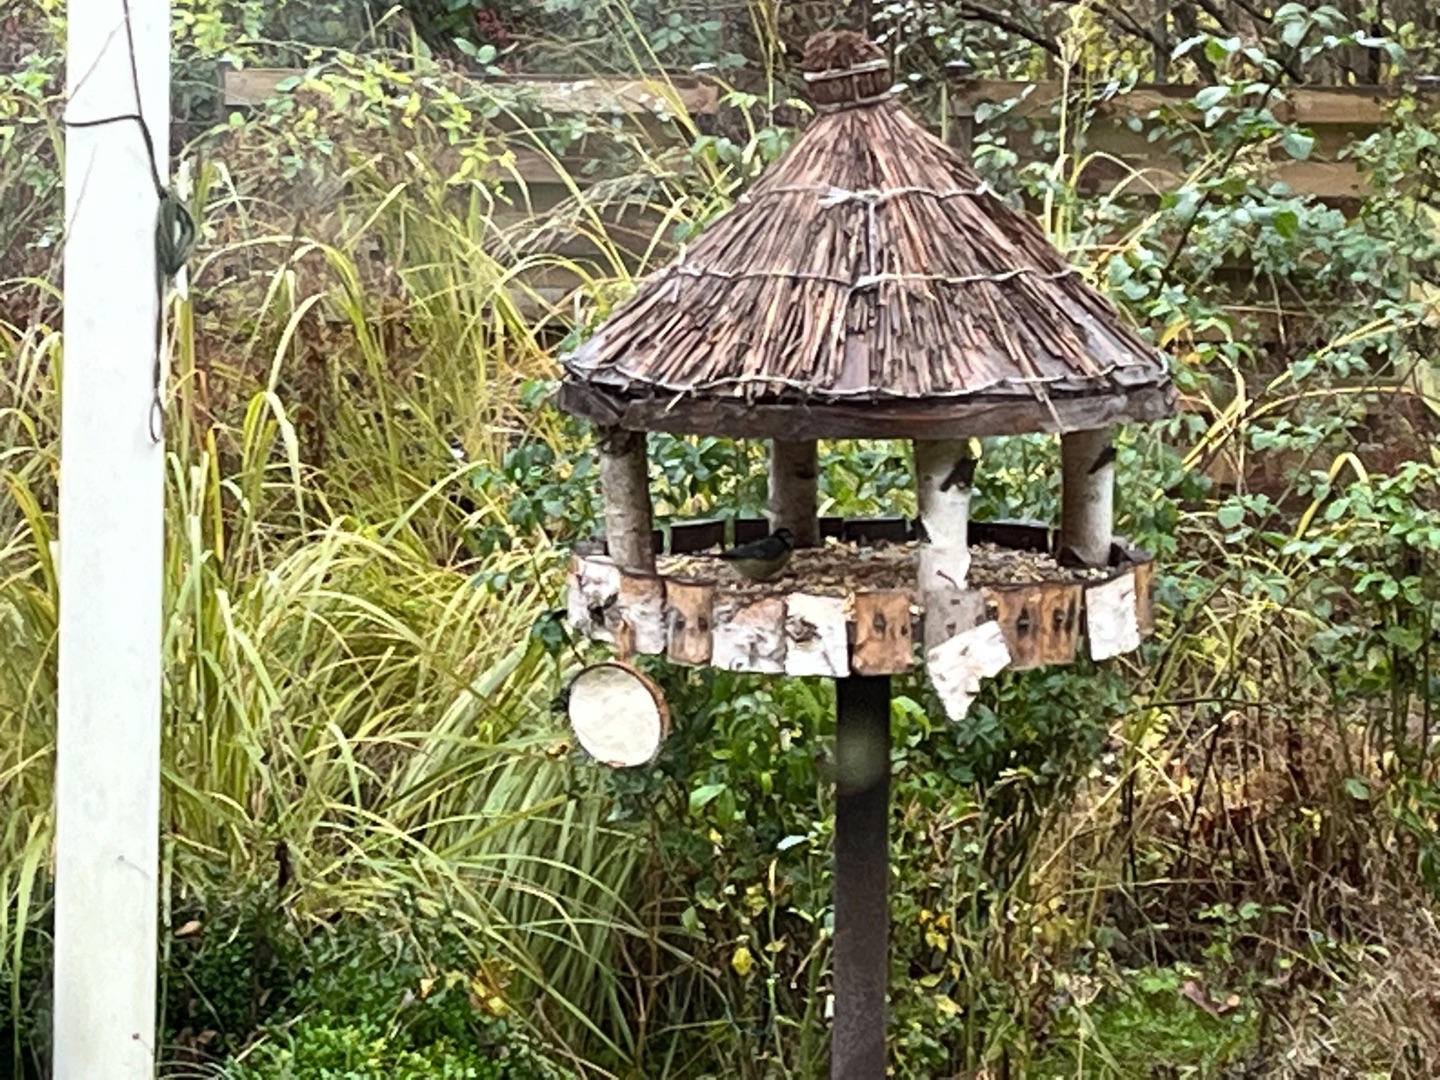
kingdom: Animalia
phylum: Chordata
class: Aves
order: Passeriformes
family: Paridae
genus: Cyanistes
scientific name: Cyanistes caeruleus
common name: Blåmejse
